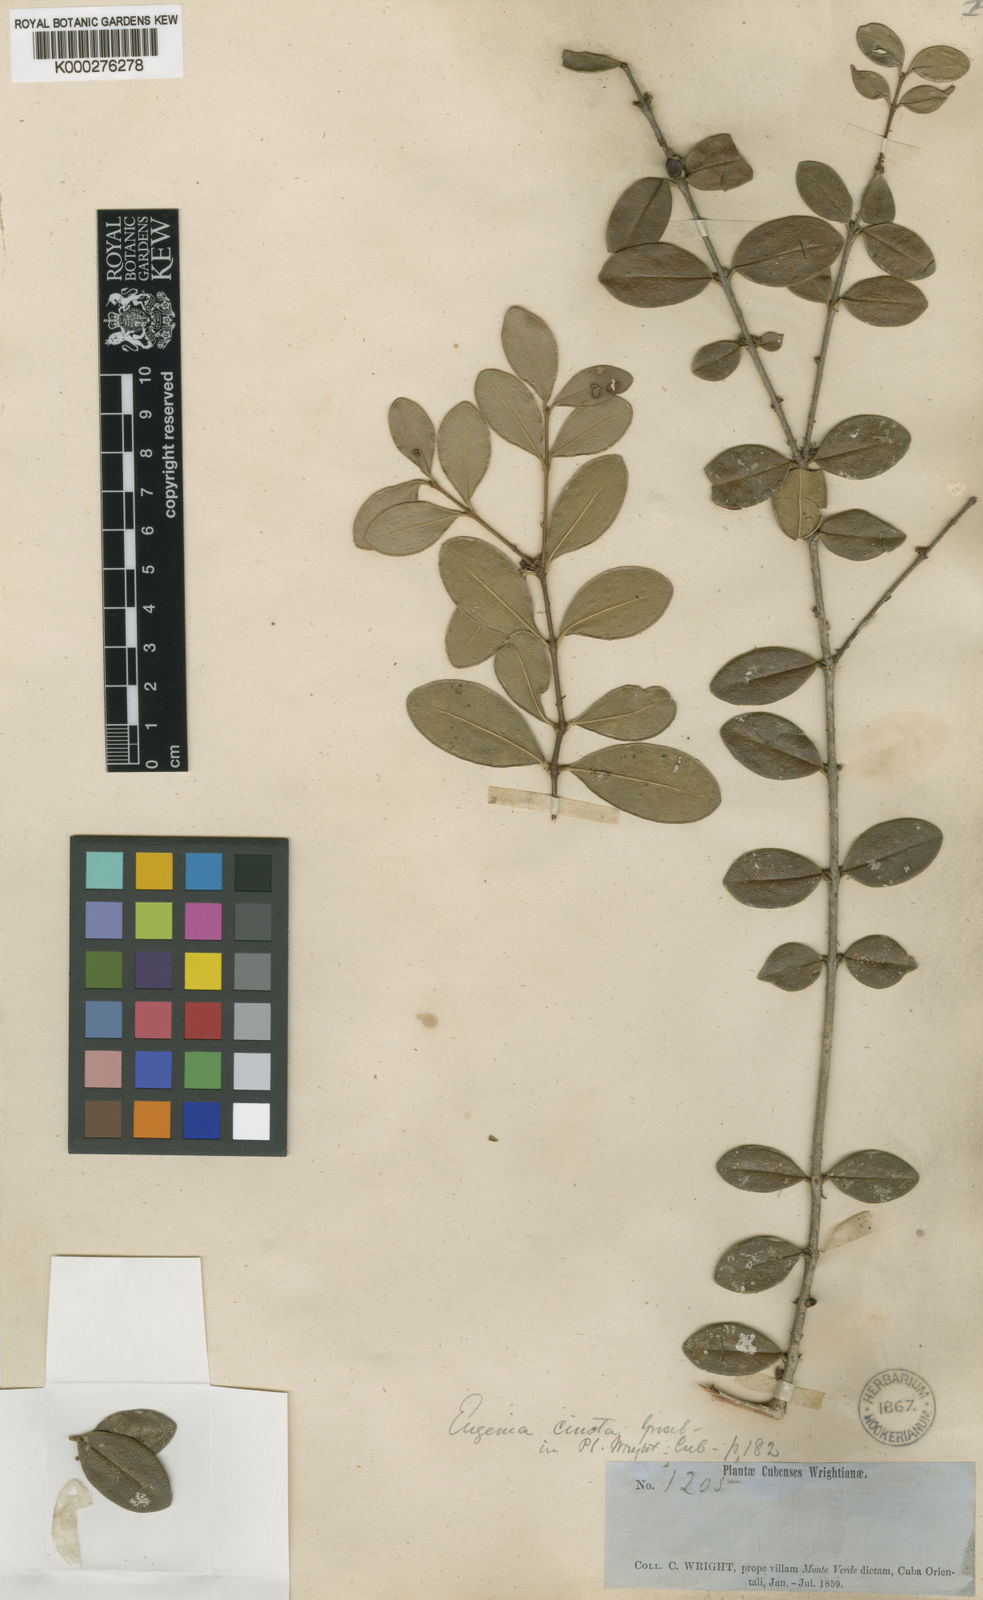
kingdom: Plantae
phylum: Tracheophyta
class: Magnoliopsida
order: Myrtales
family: Myrtaceae
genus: Eugenia
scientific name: Eugenia cincta
